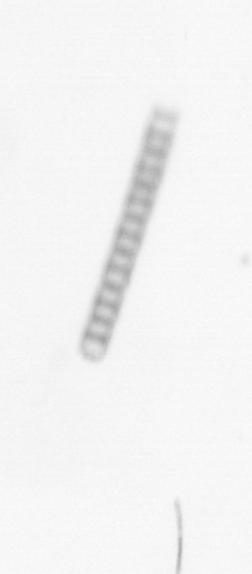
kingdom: Chromista
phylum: Ochrophyta
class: Bacillariophyceae
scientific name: Bacillariophyceae
